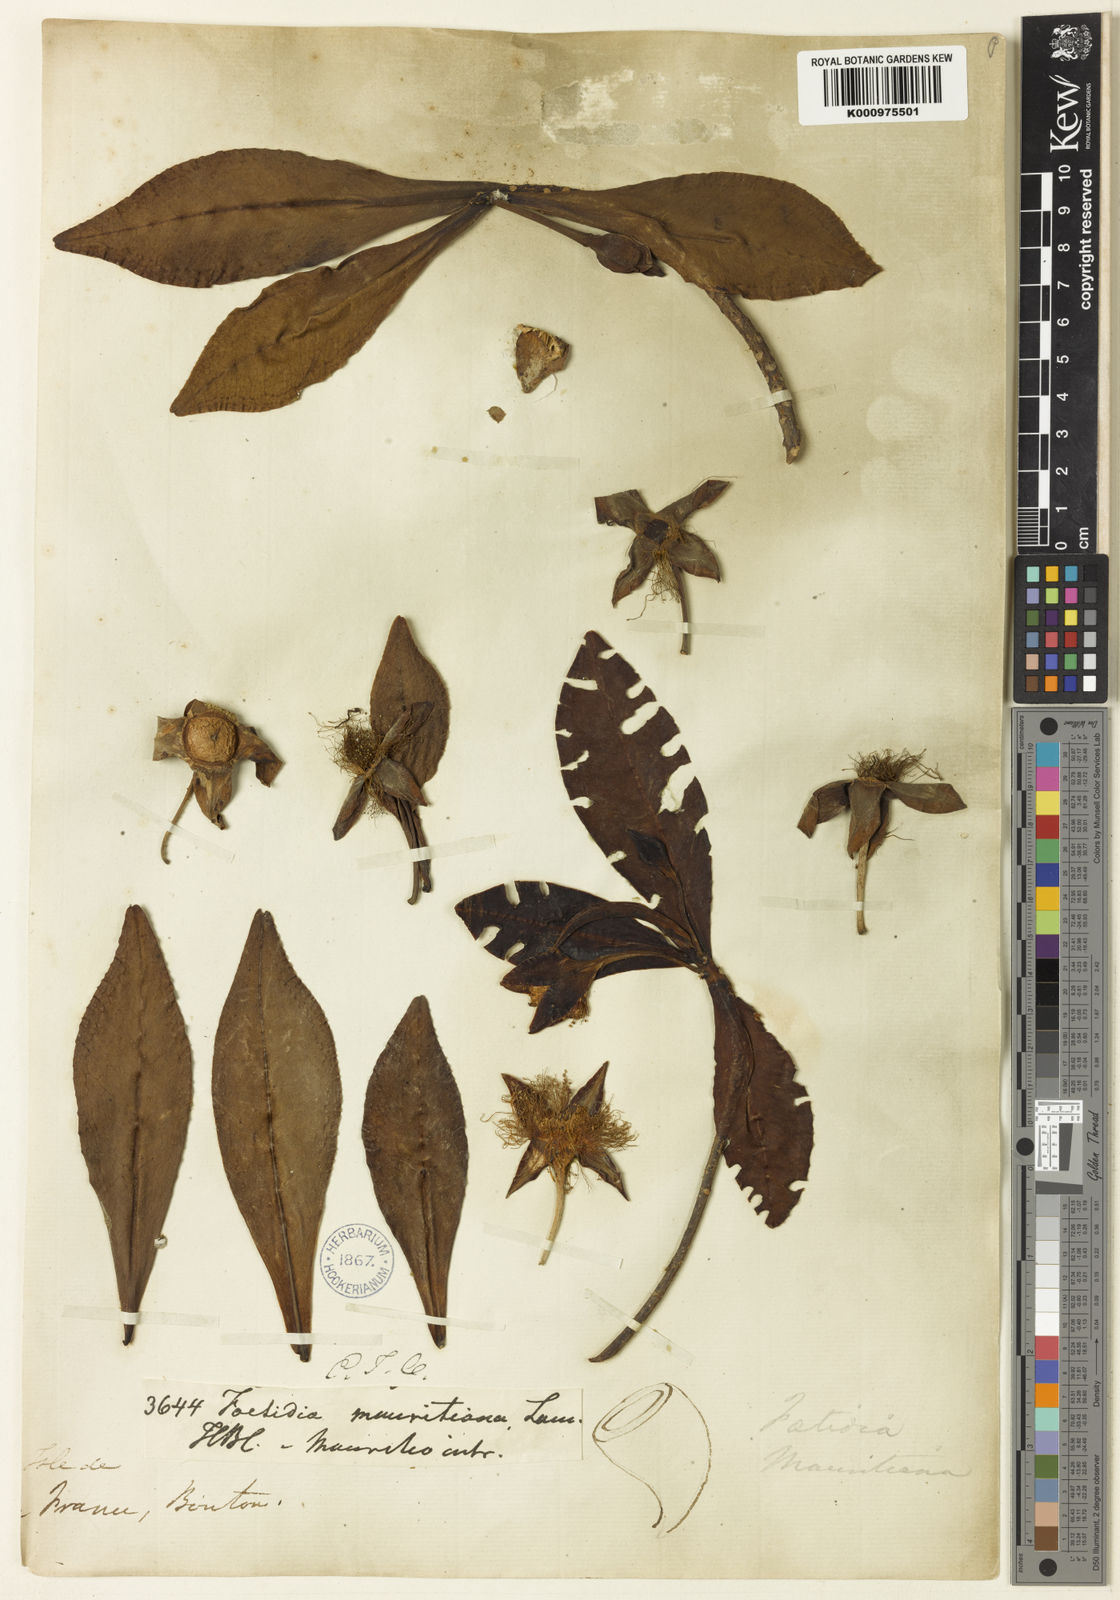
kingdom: Plantae
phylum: Tracheophyta
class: Magnoliopsida
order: Ericales
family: Lecythidaceae
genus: Foetidia
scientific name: Foetidia mauritiana
